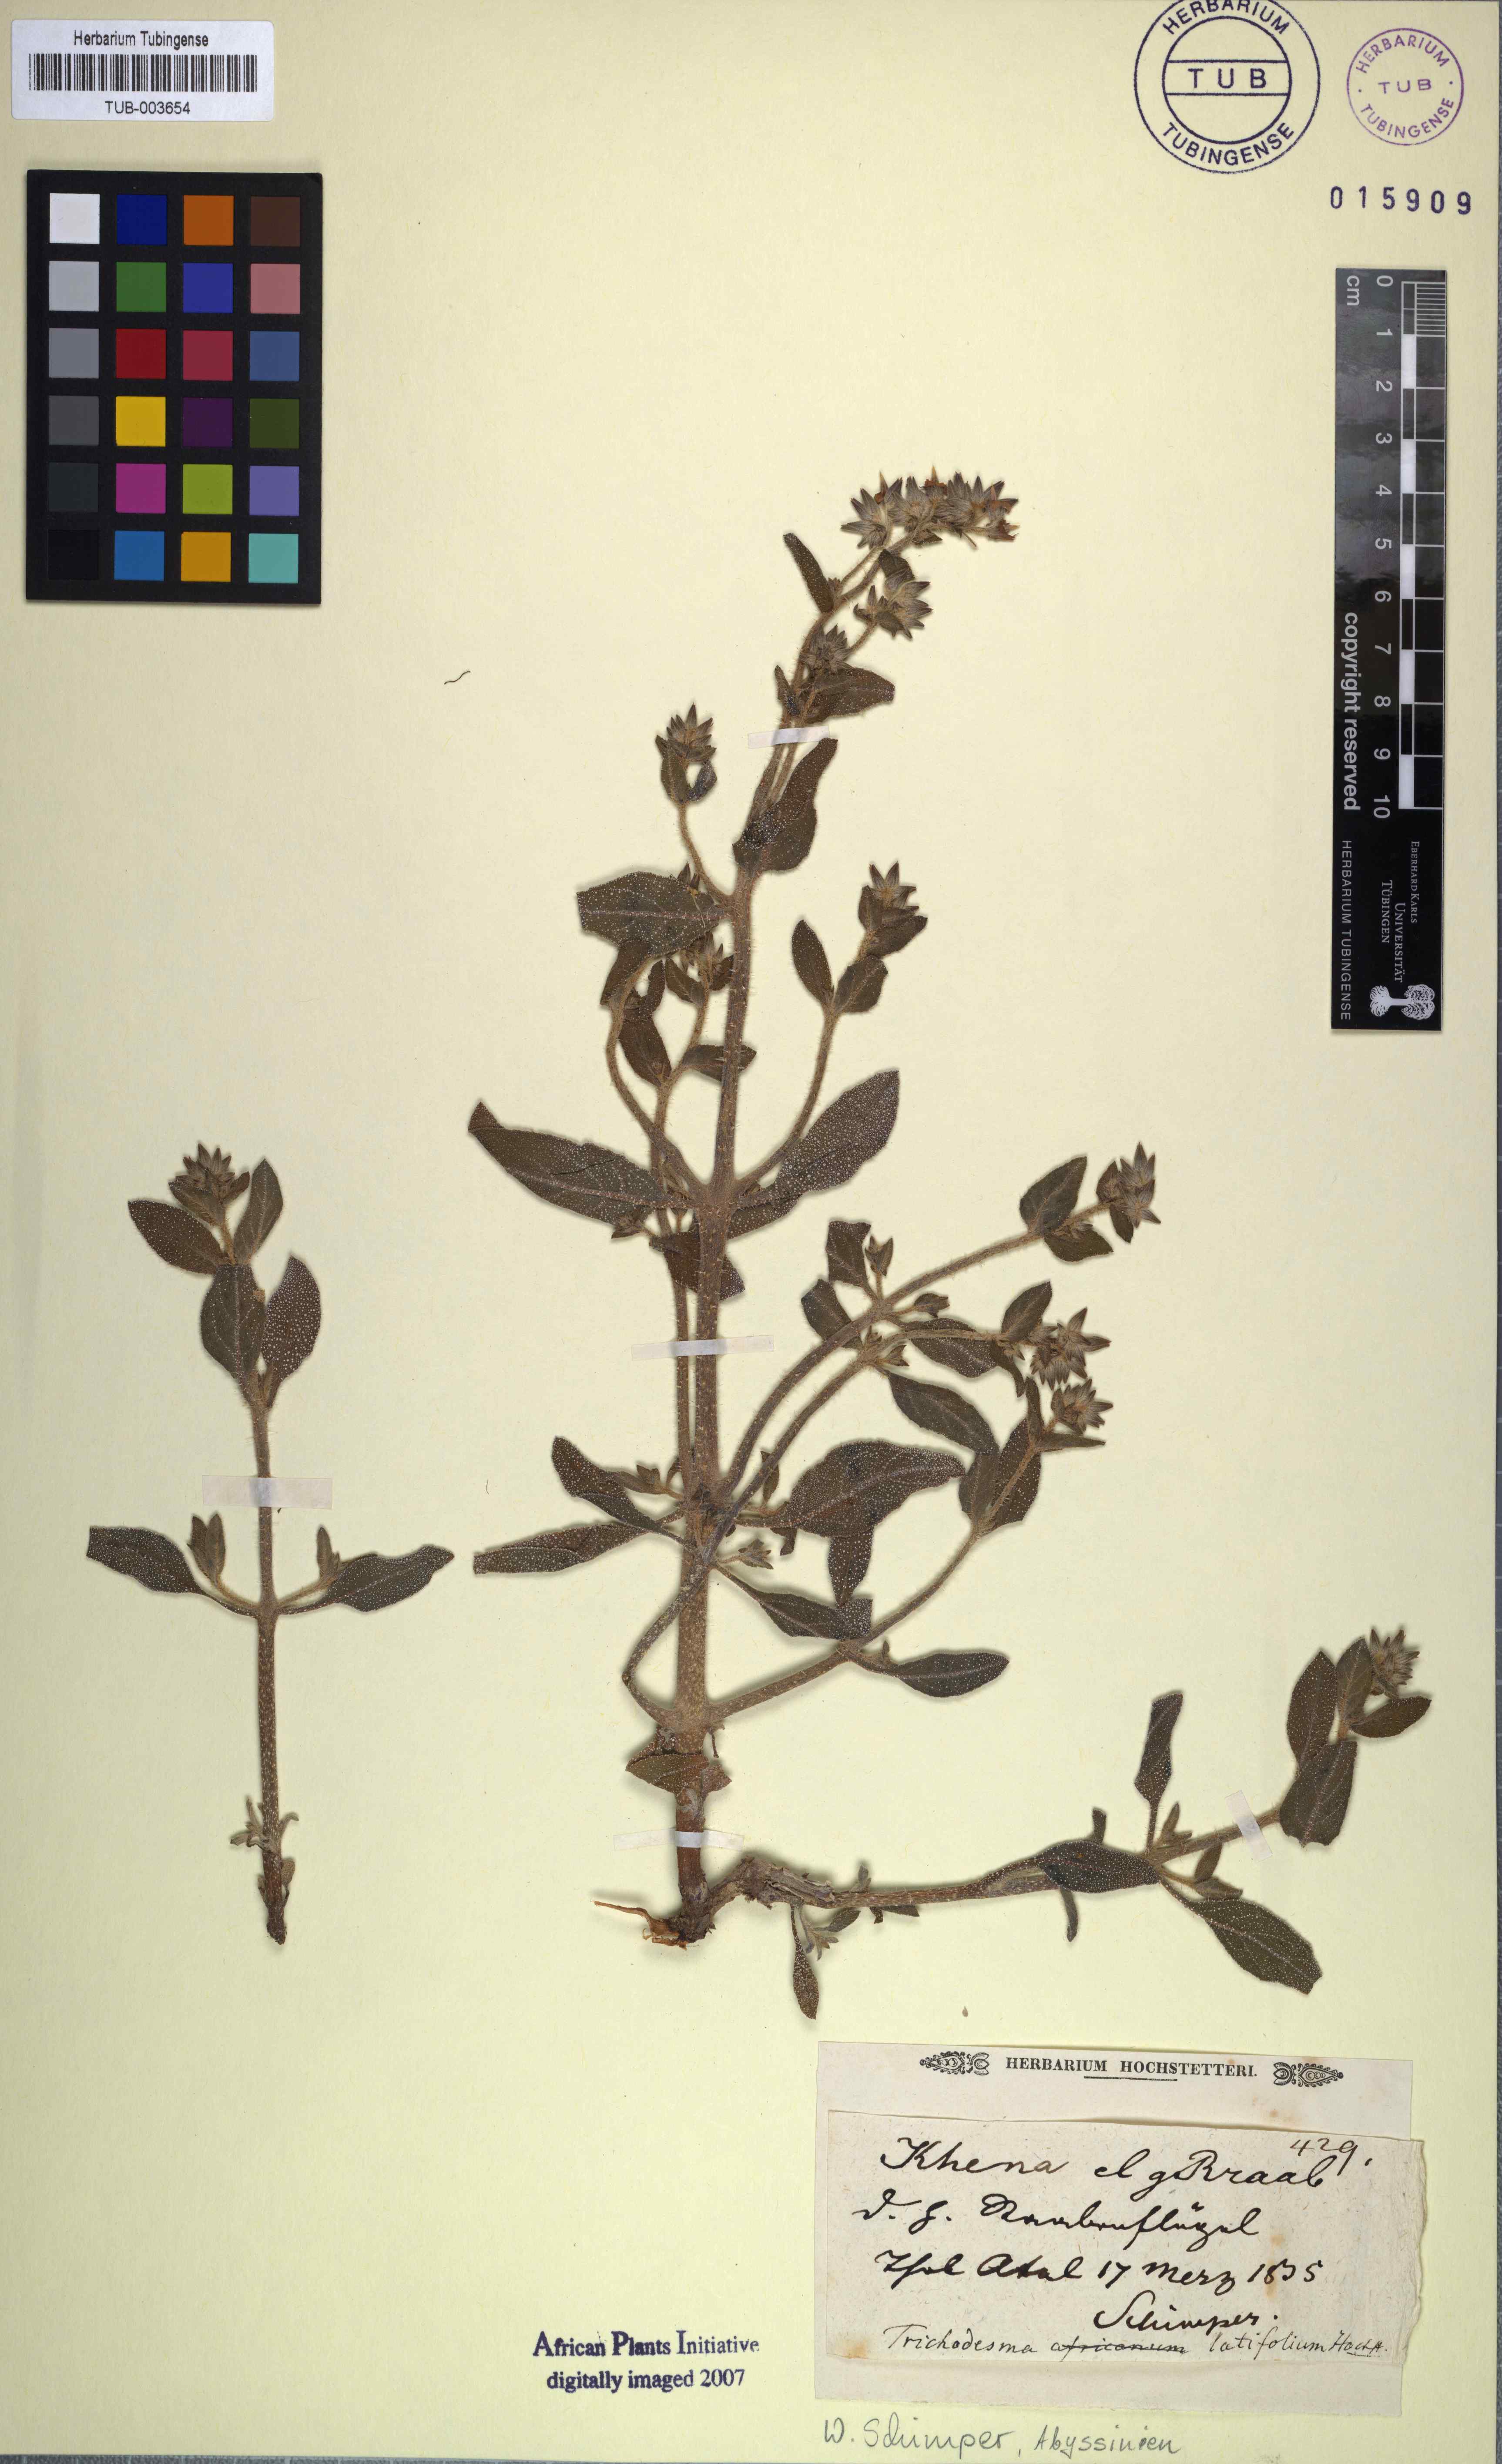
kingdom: Plantae
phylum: Tracheophyta
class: Magnoliopsida
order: Boraginales
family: Boraginaceae
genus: Trichodesma
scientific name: Trichodesma
